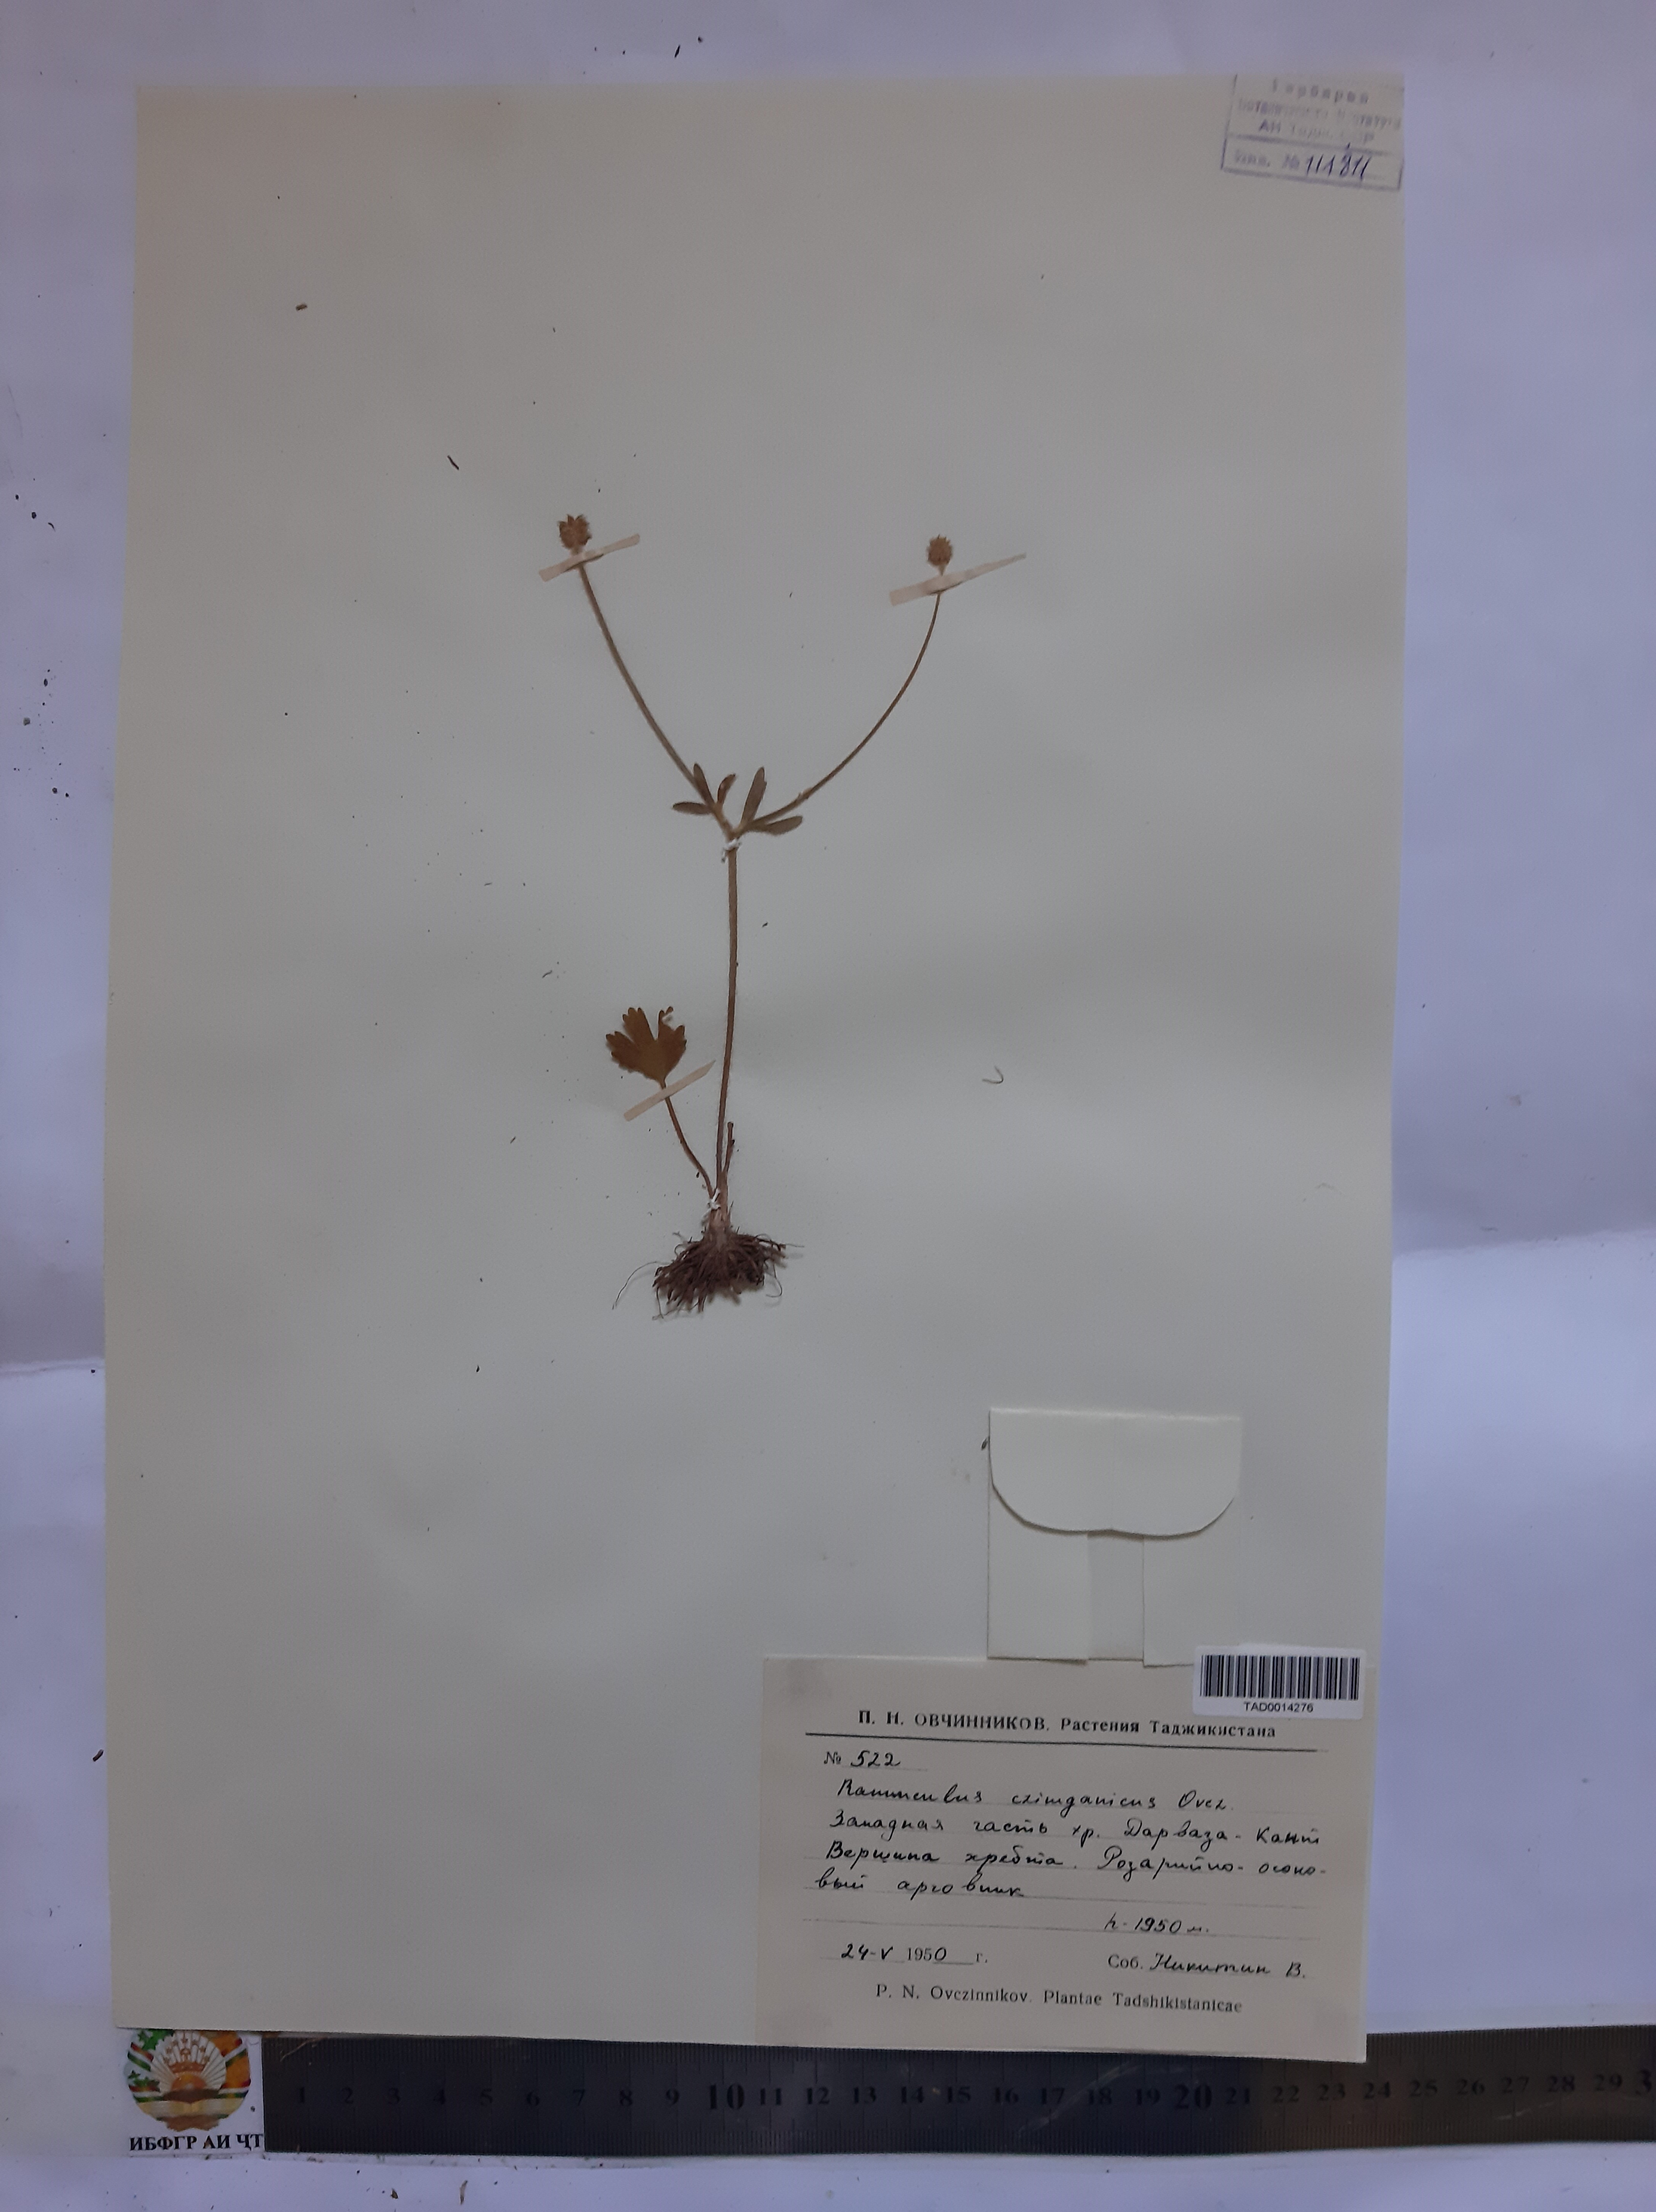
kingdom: Plantae
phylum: Tracheophyta
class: Magnoliopsida
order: Ranunculales
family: Ranunculaceae
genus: Ranunculus
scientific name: Ranunculus czimganicus
